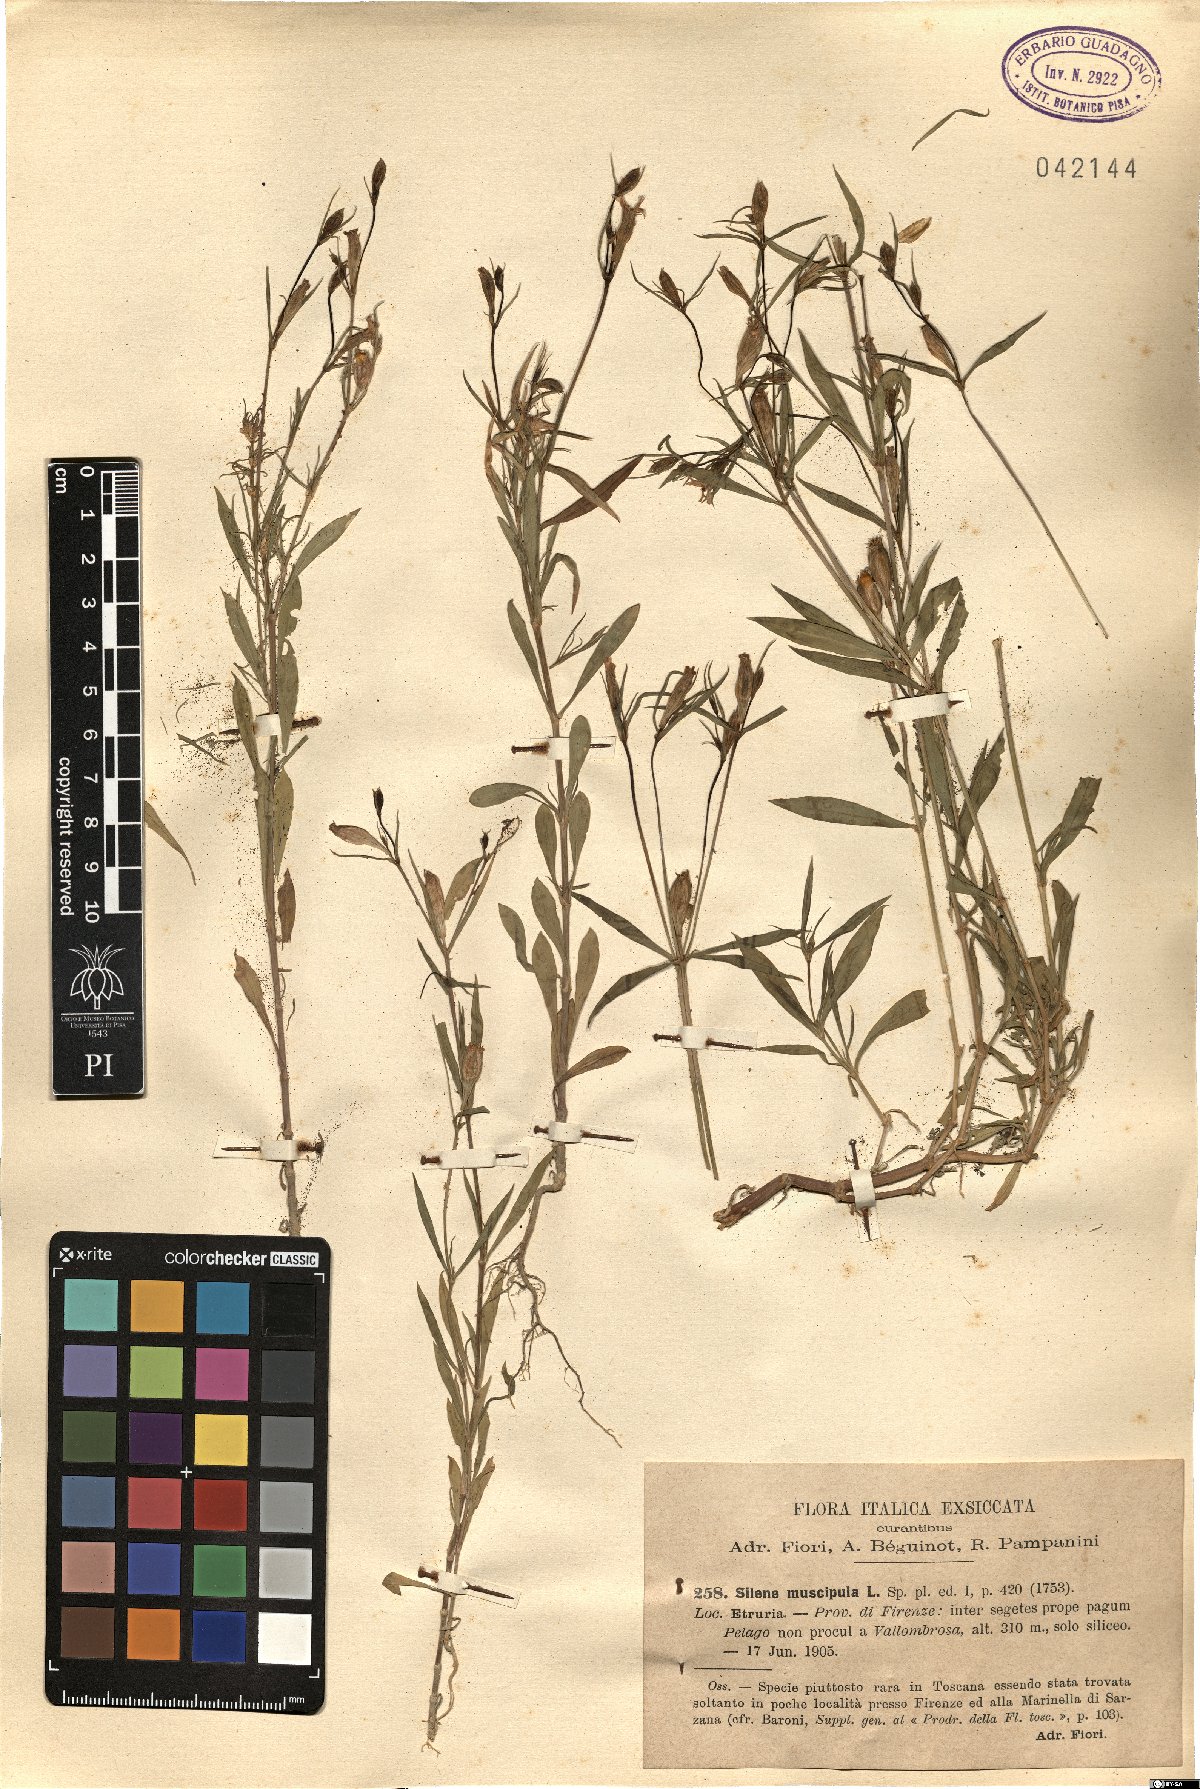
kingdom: Plantae
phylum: Tracheophyta
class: Magnoliopsida
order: Caryophyllales
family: Caryophyllaceae
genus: Silene
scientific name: Silene muscipula
